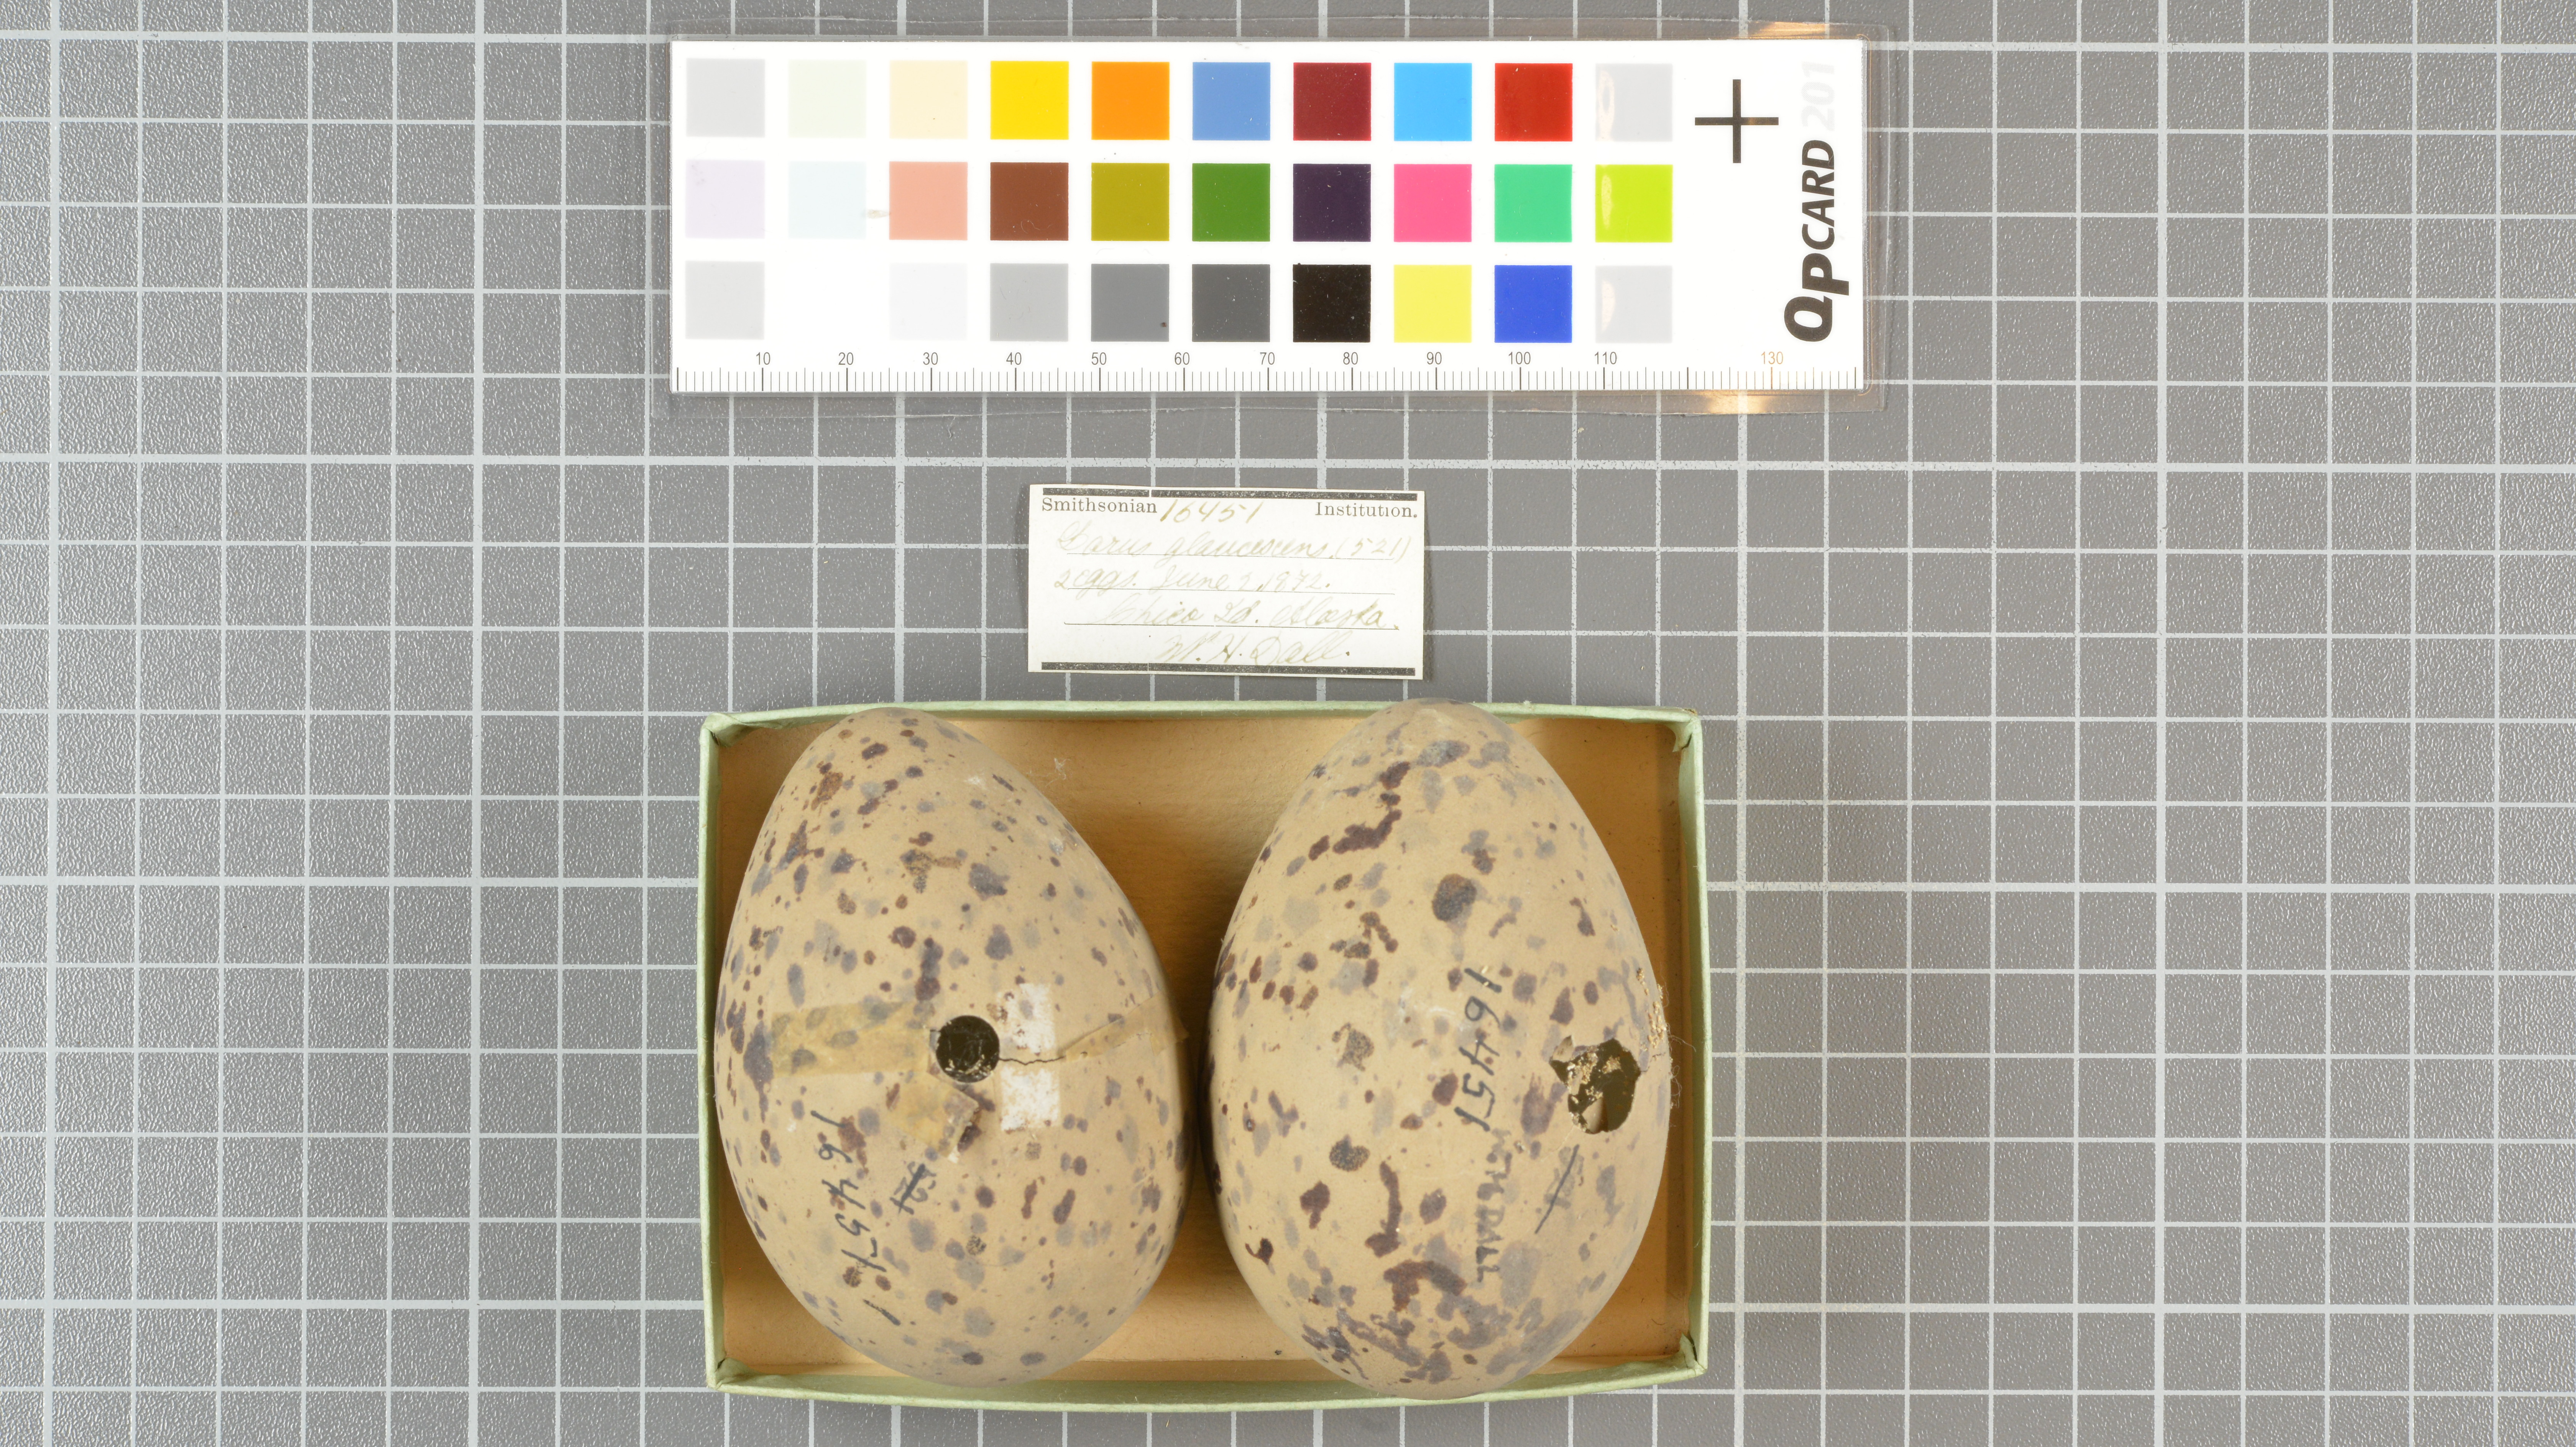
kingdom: Animalia
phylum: Chordata
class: Aves
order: Charadriiformes
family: Laridae
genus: Larus
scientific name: Larus glaucescens
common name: Glaucous-winged gull
